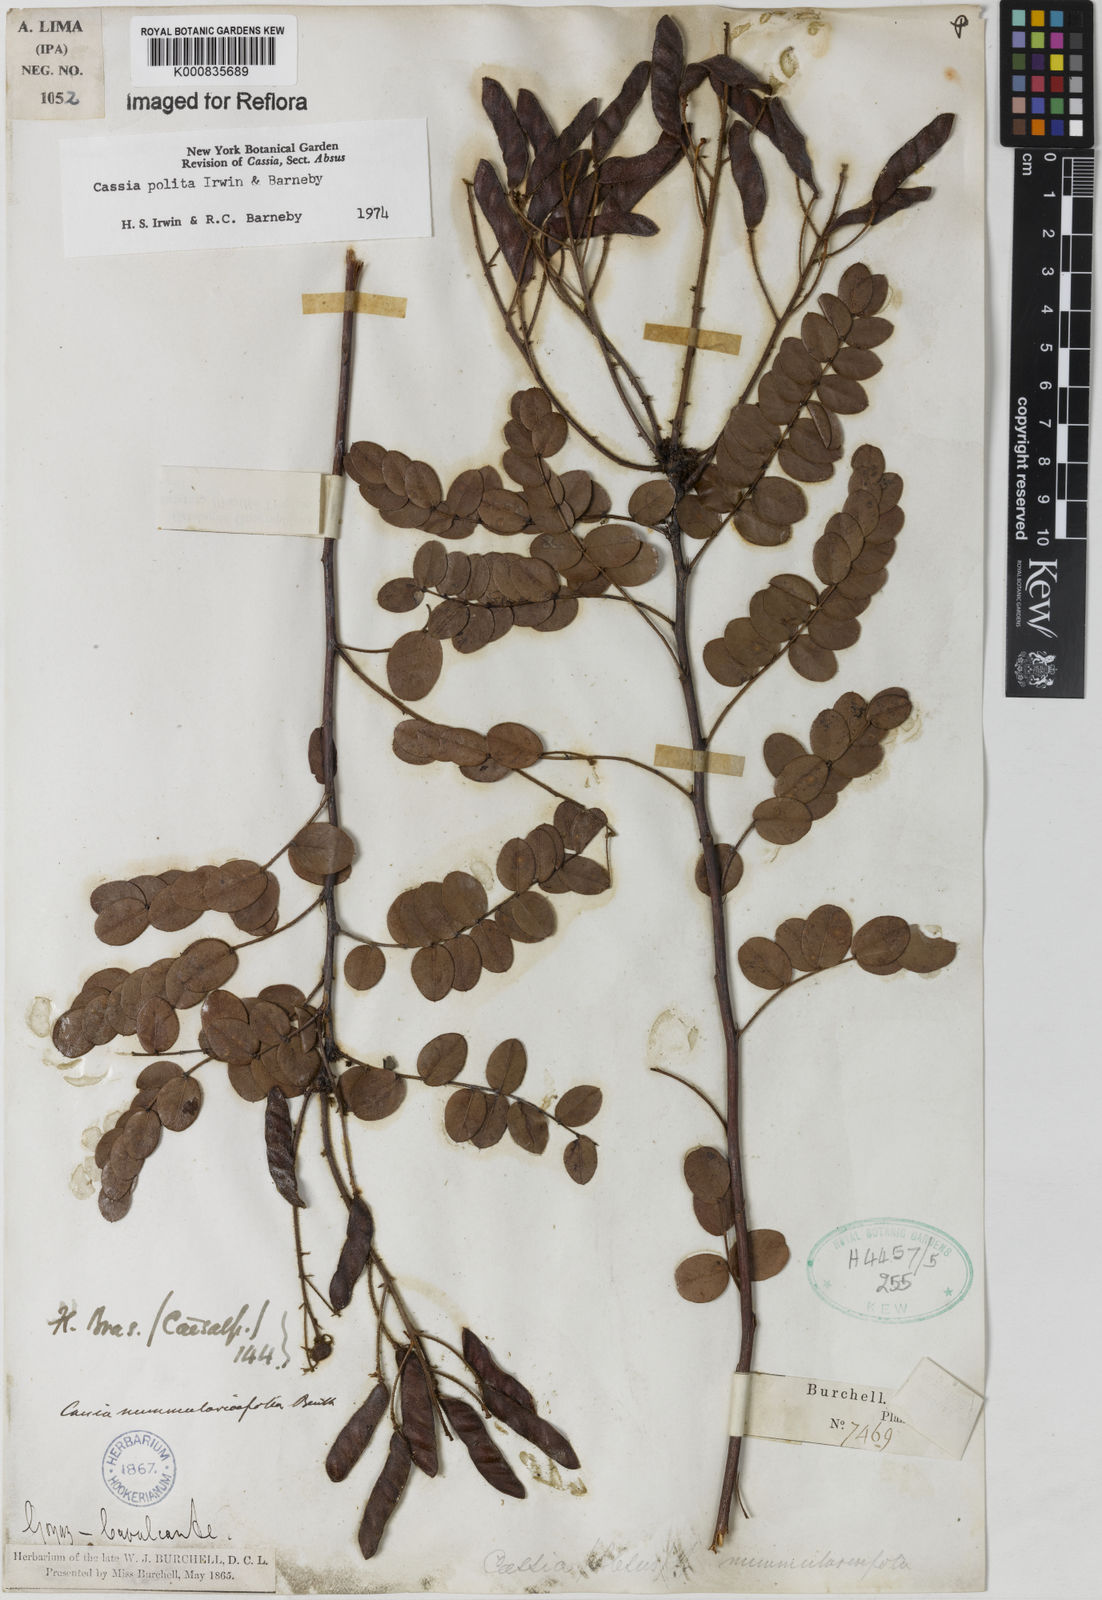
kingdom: Plantae
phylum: Tracheophyta
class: Magnoliopsida
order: Fabales
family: Fabaceae
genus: Chamaecrista
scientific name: Chamaecrista polita
